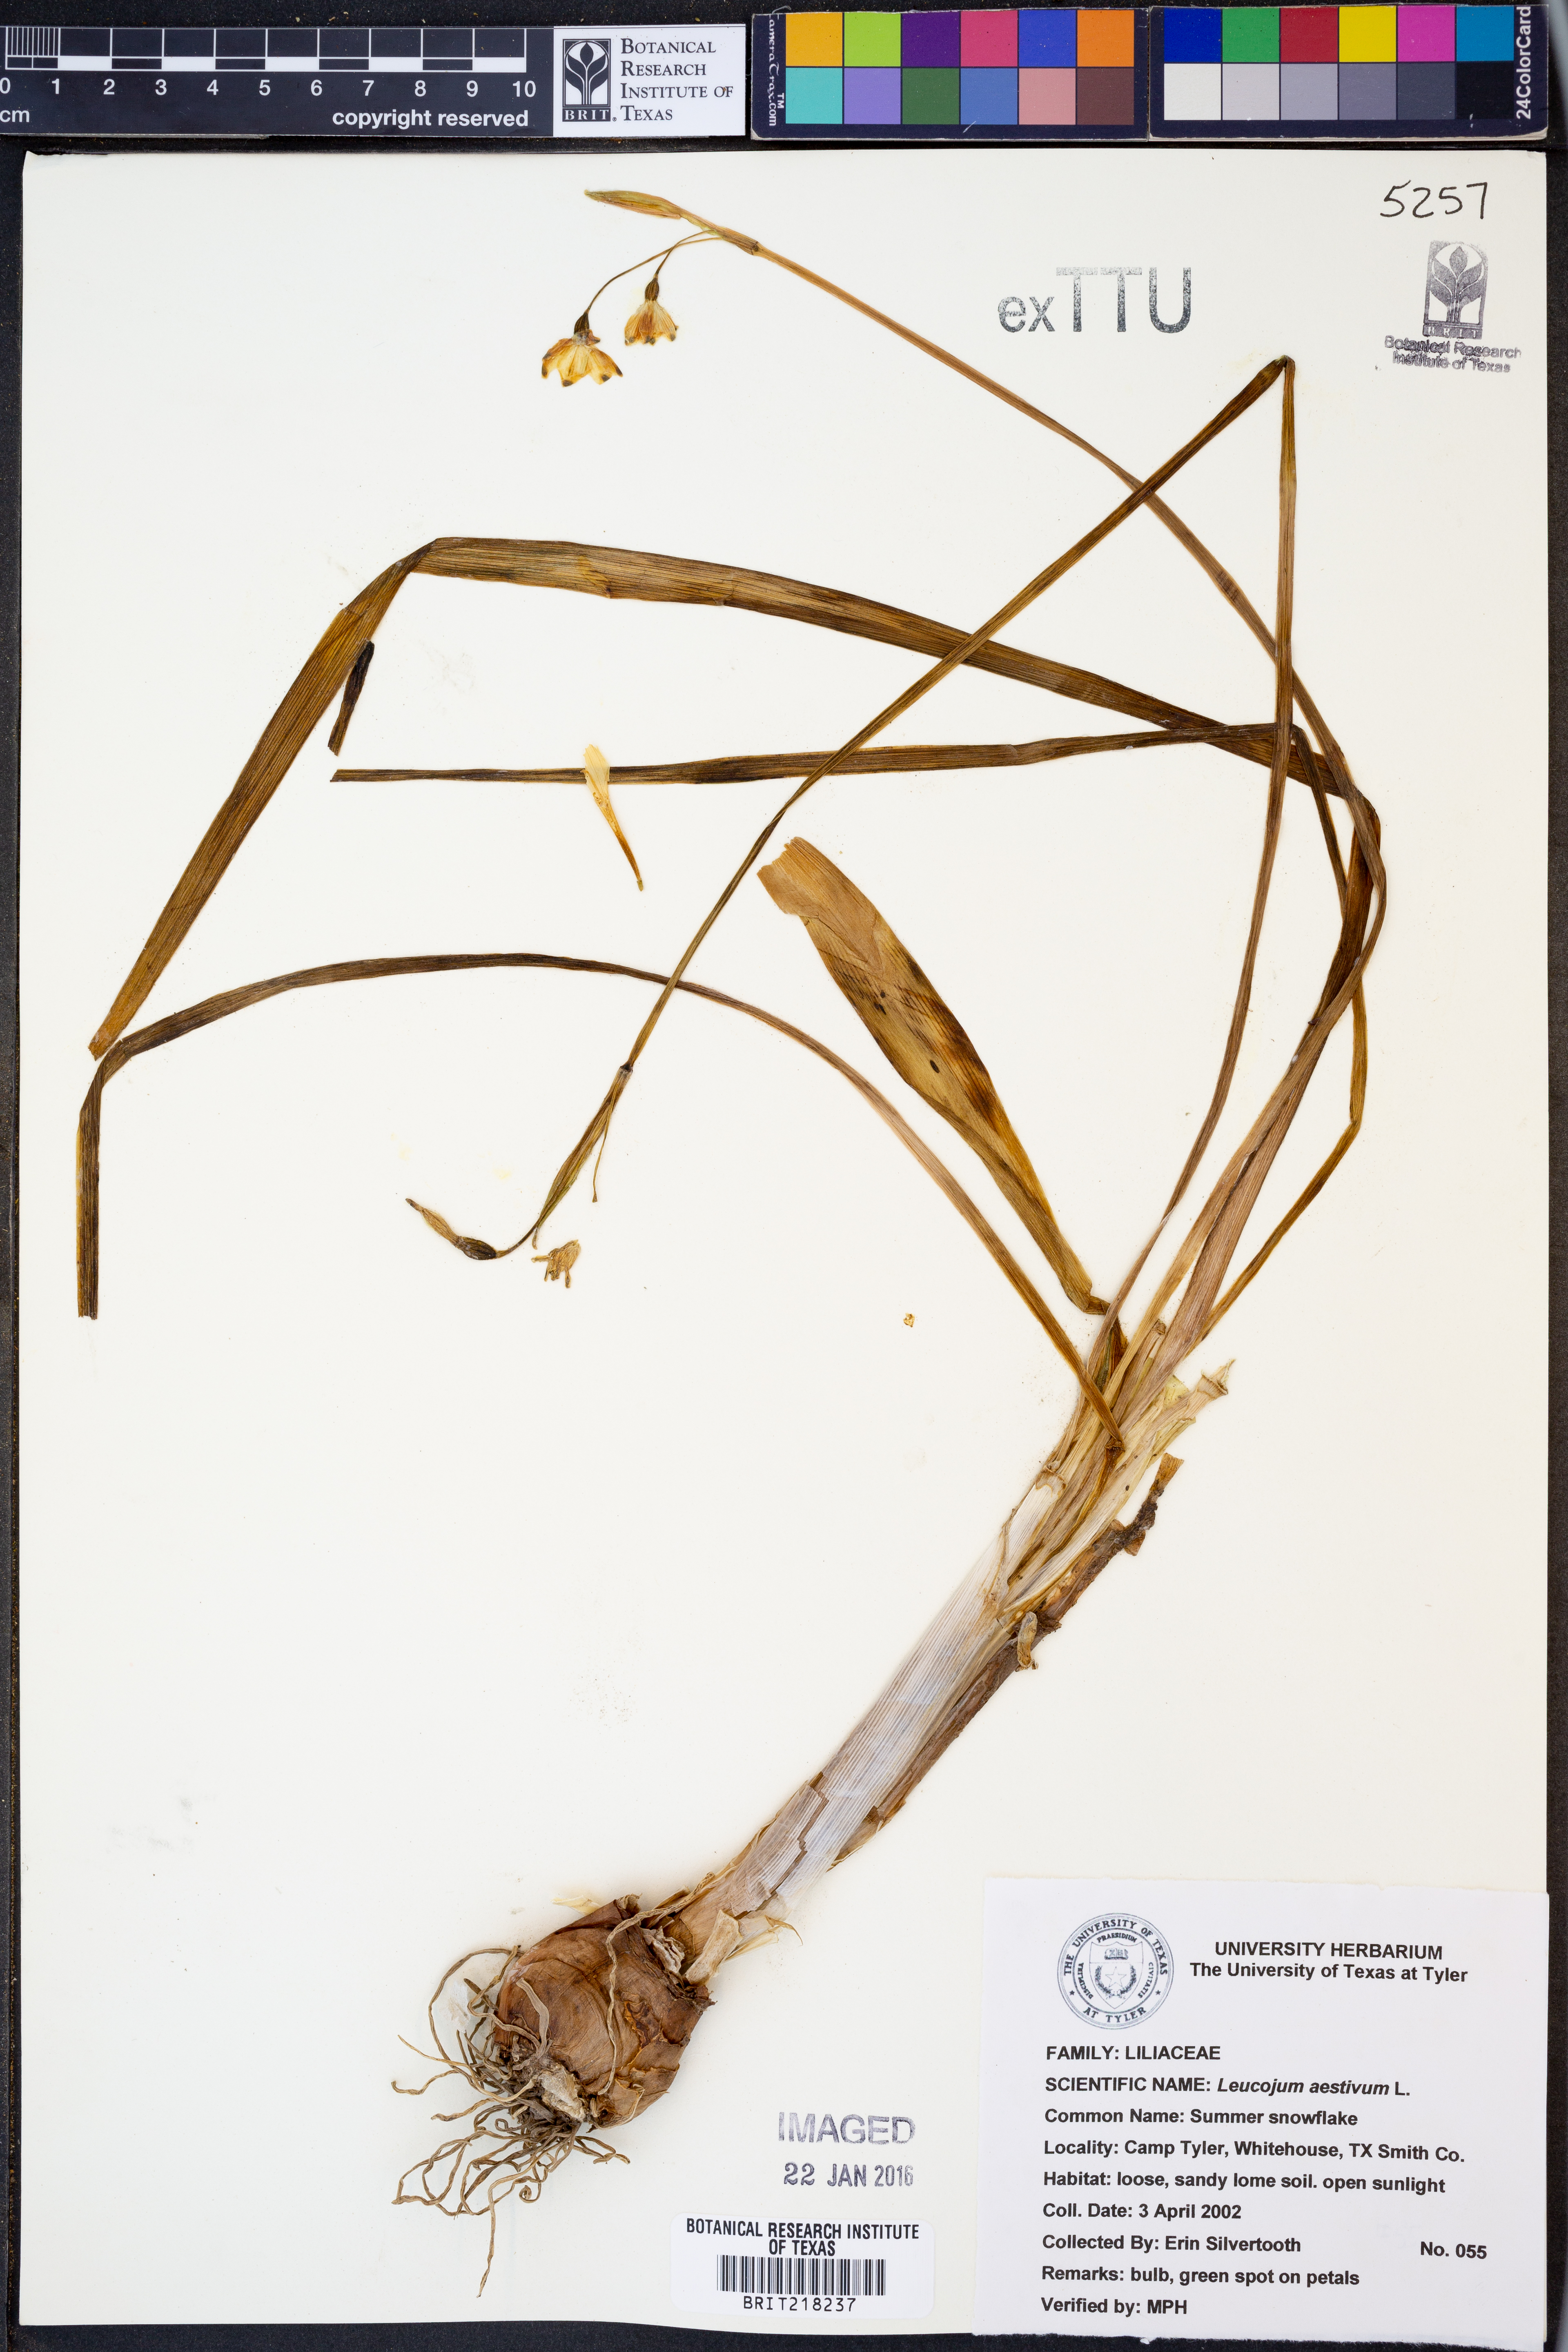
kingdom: Plantae
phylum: Tracheophyta
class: Liliopsida
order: Asparagales
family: Amaryllidaceae
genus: Leucojum
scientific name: Leucojum aestivum
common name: Summer snowflake
